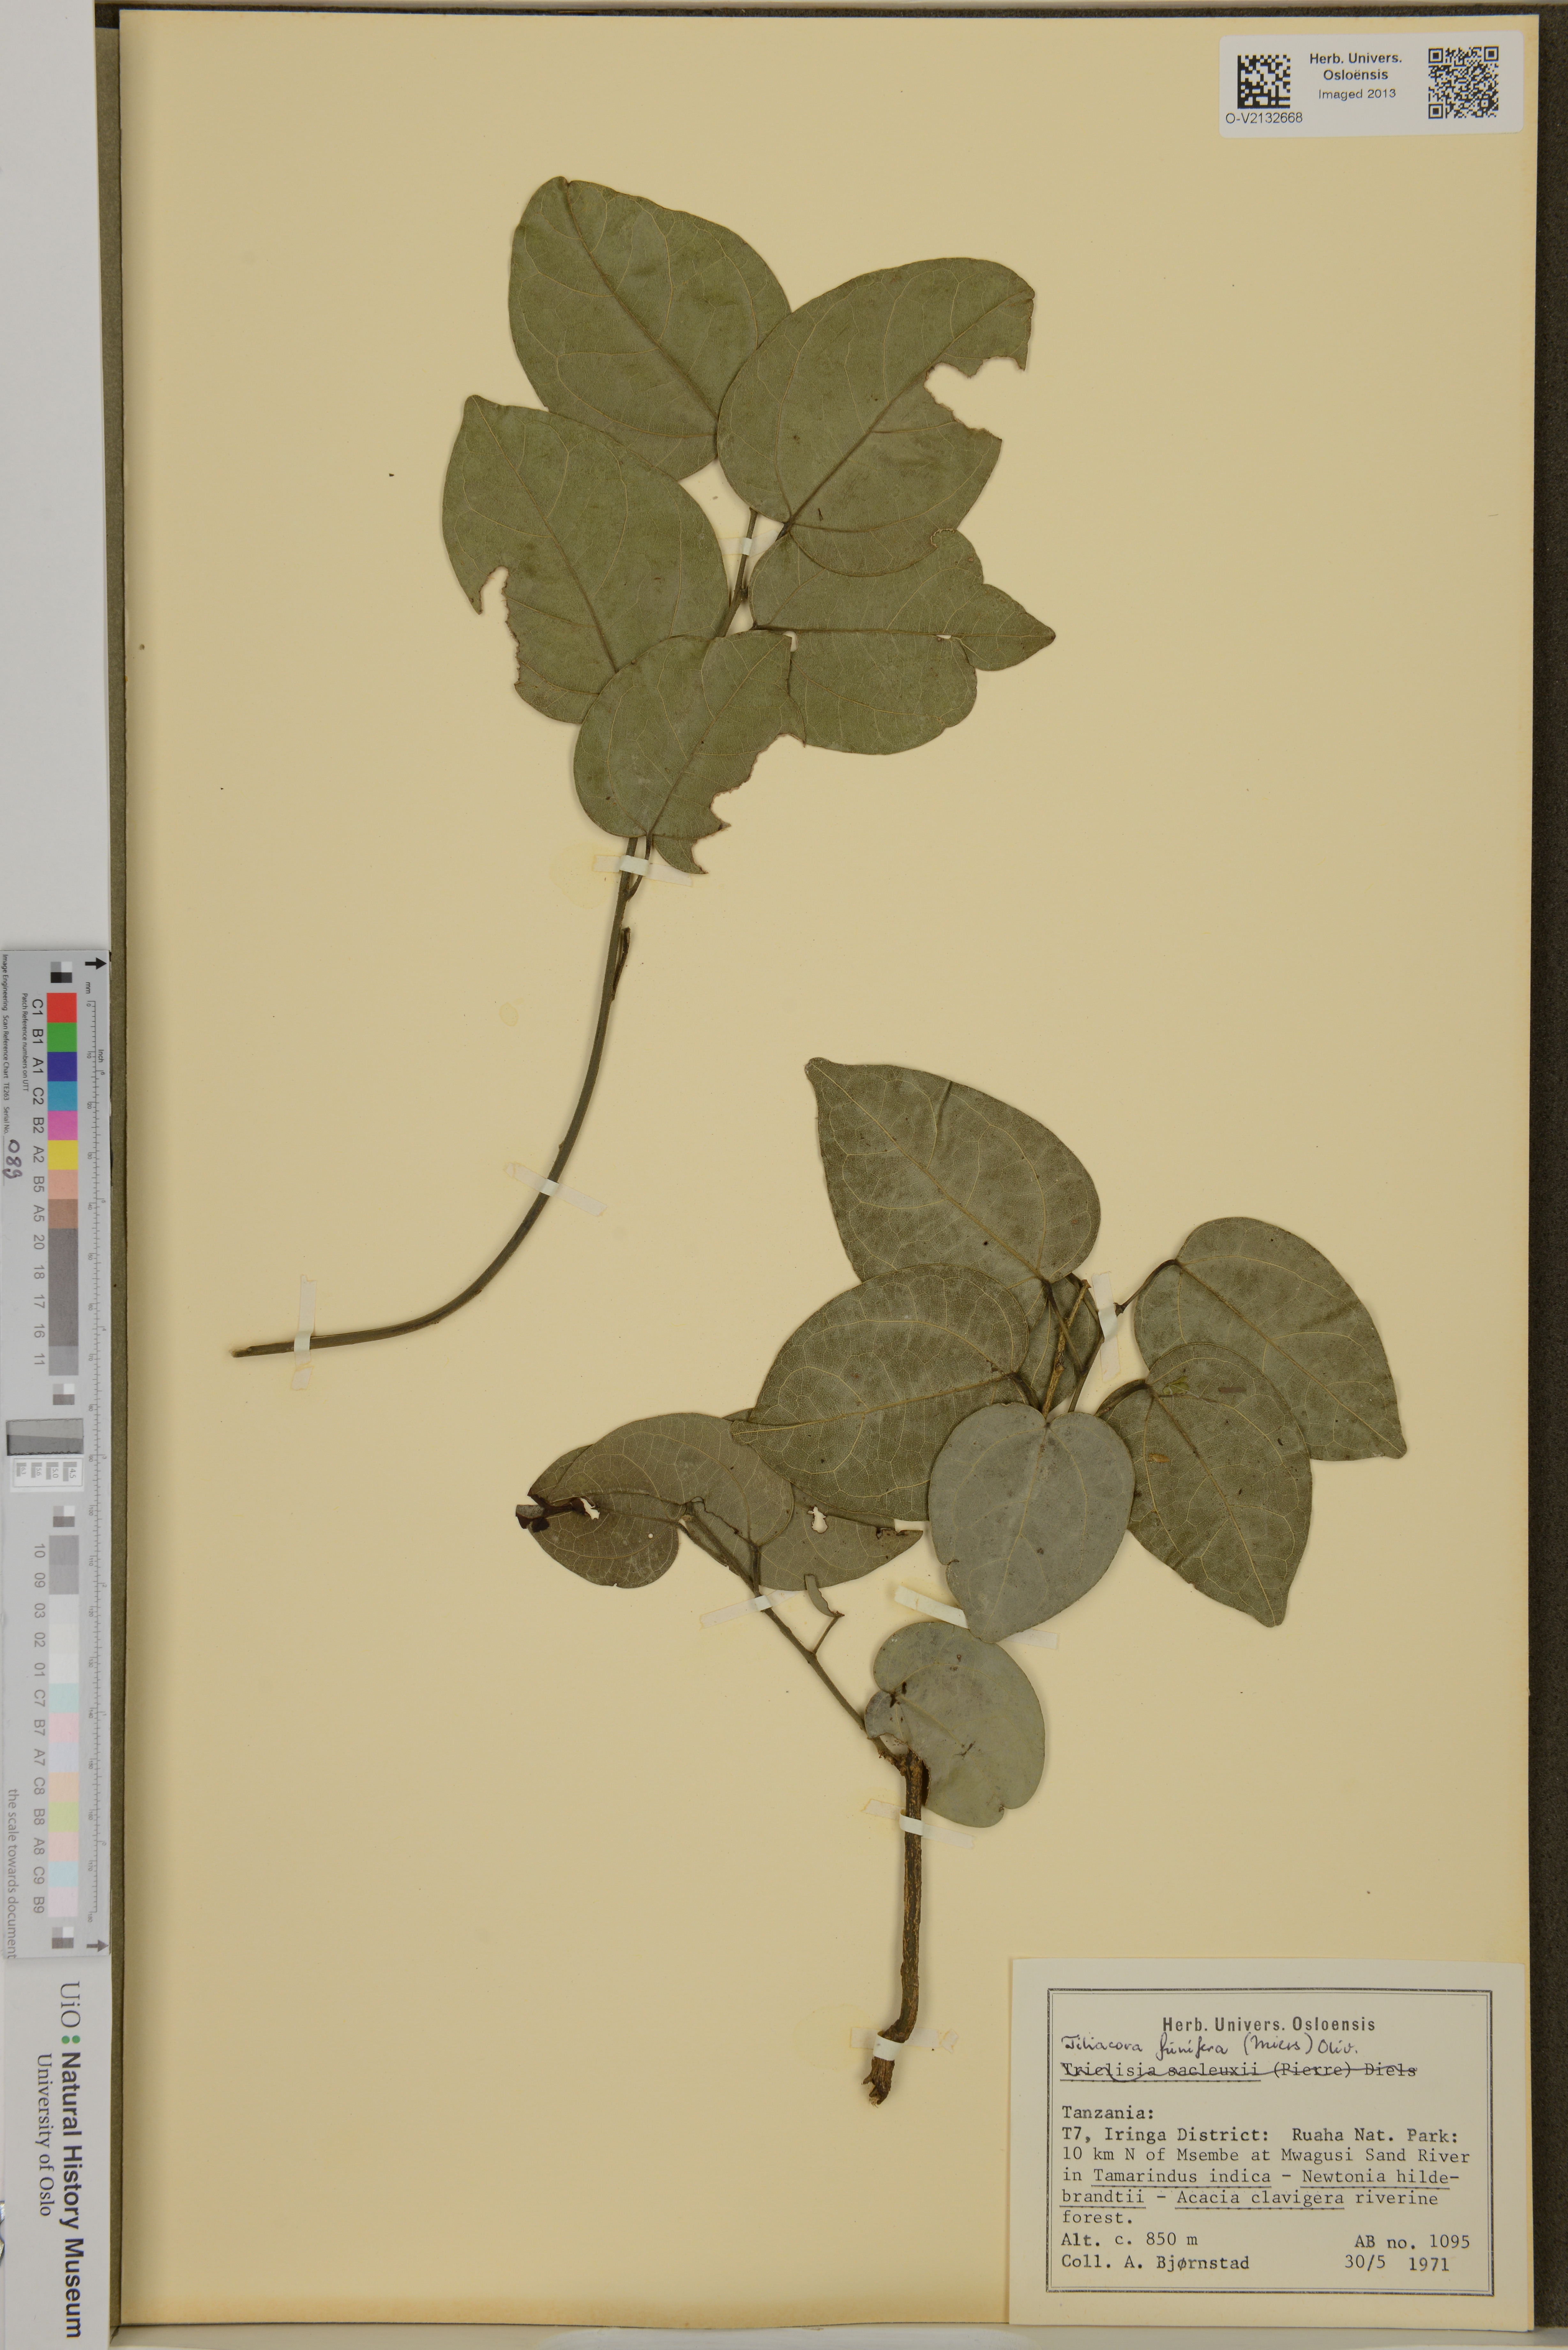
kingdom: Plantae
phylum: Tracheophyta
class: Magnoliopsida
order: Ranunculales
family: Menispermaceae
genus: Tiliacora
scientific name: Tiliacora funifera
